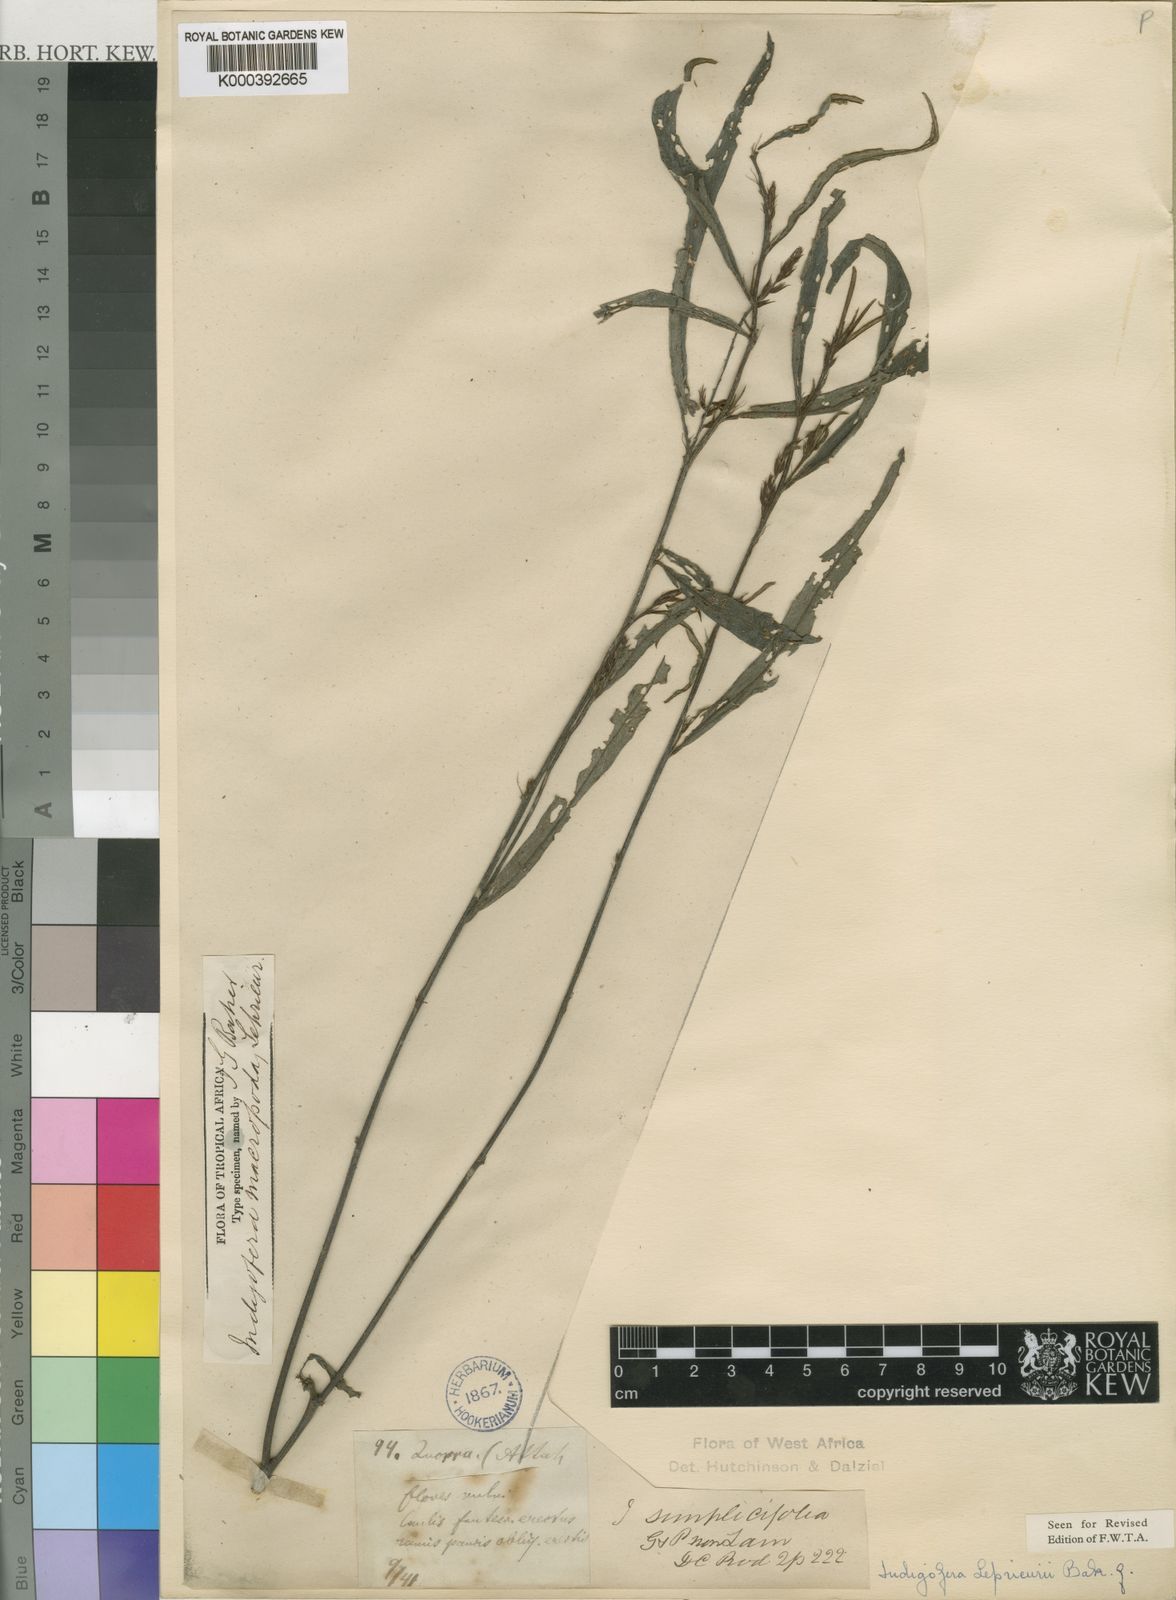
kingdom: Plantae
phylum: Tracheophyta
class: Magnoliopsida
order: Fabales
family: Fabaceae
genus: Indigofera
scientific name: Indigofera leprieurii
